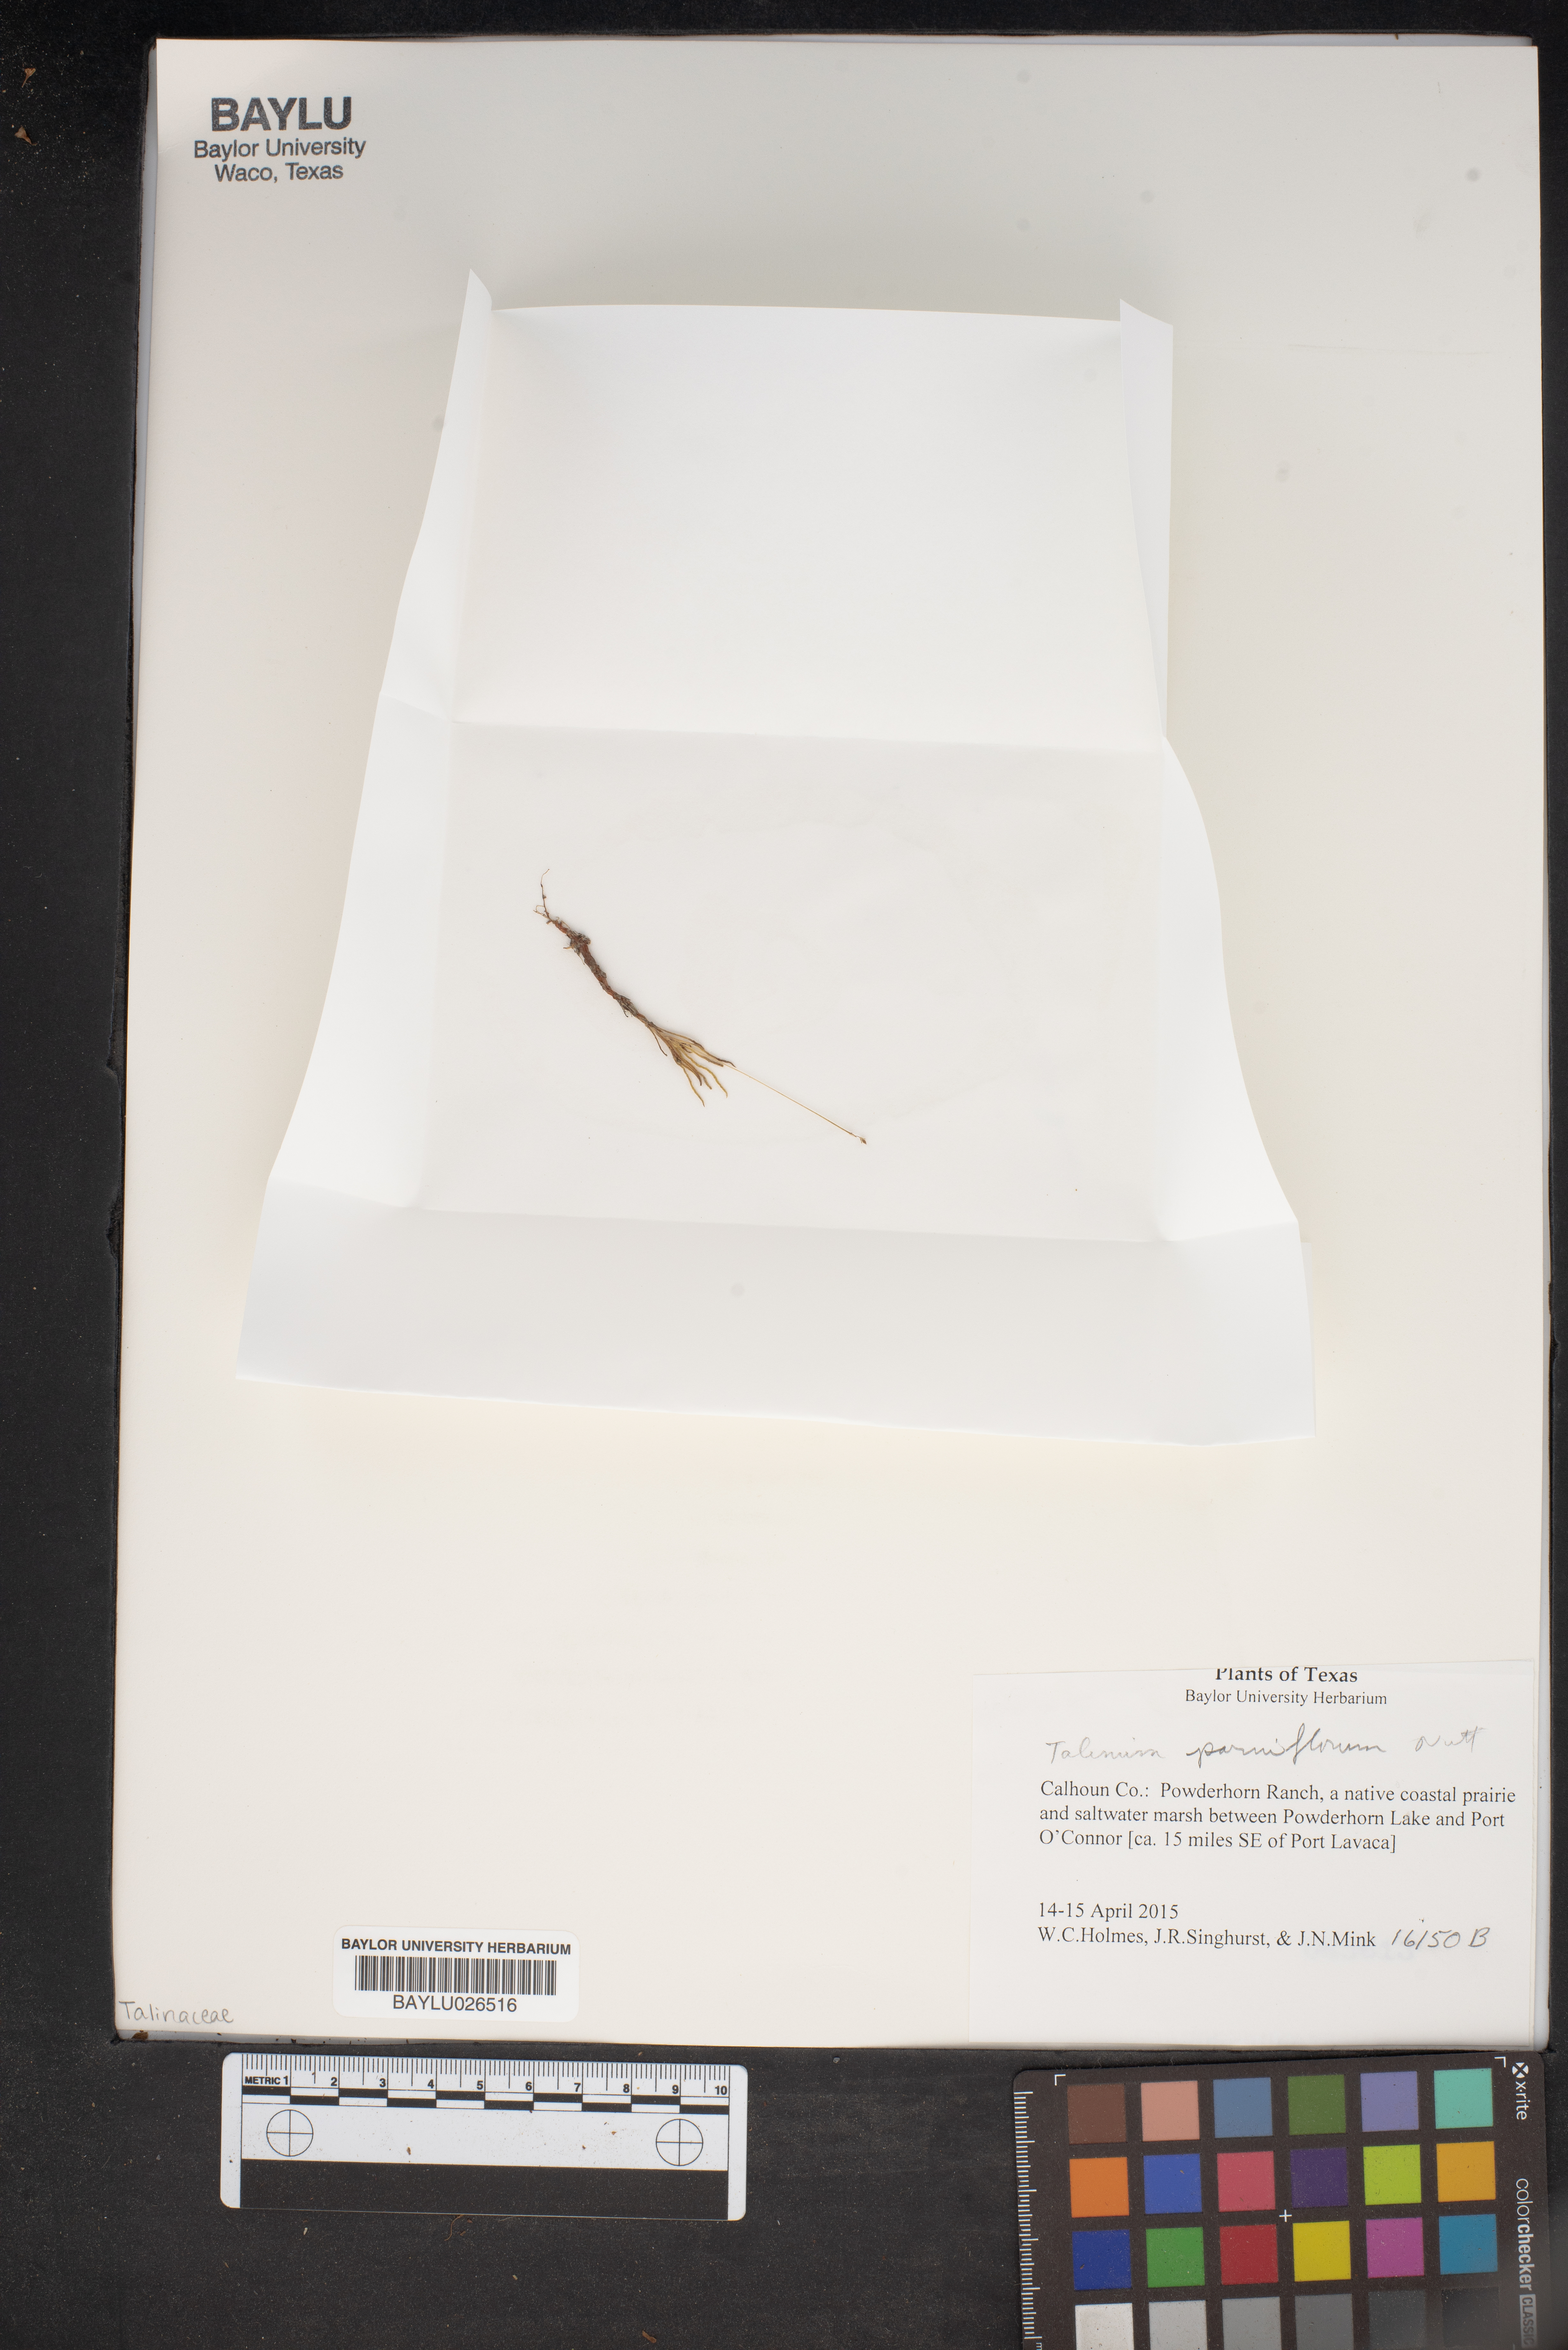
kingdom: Plantae
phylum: Tracheophyta
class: Magnoliopsida
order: Caryophyllales
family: Montiaceae
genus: Phemeranthus
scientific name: Phemeranthus parviflorus
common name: Sunbright
